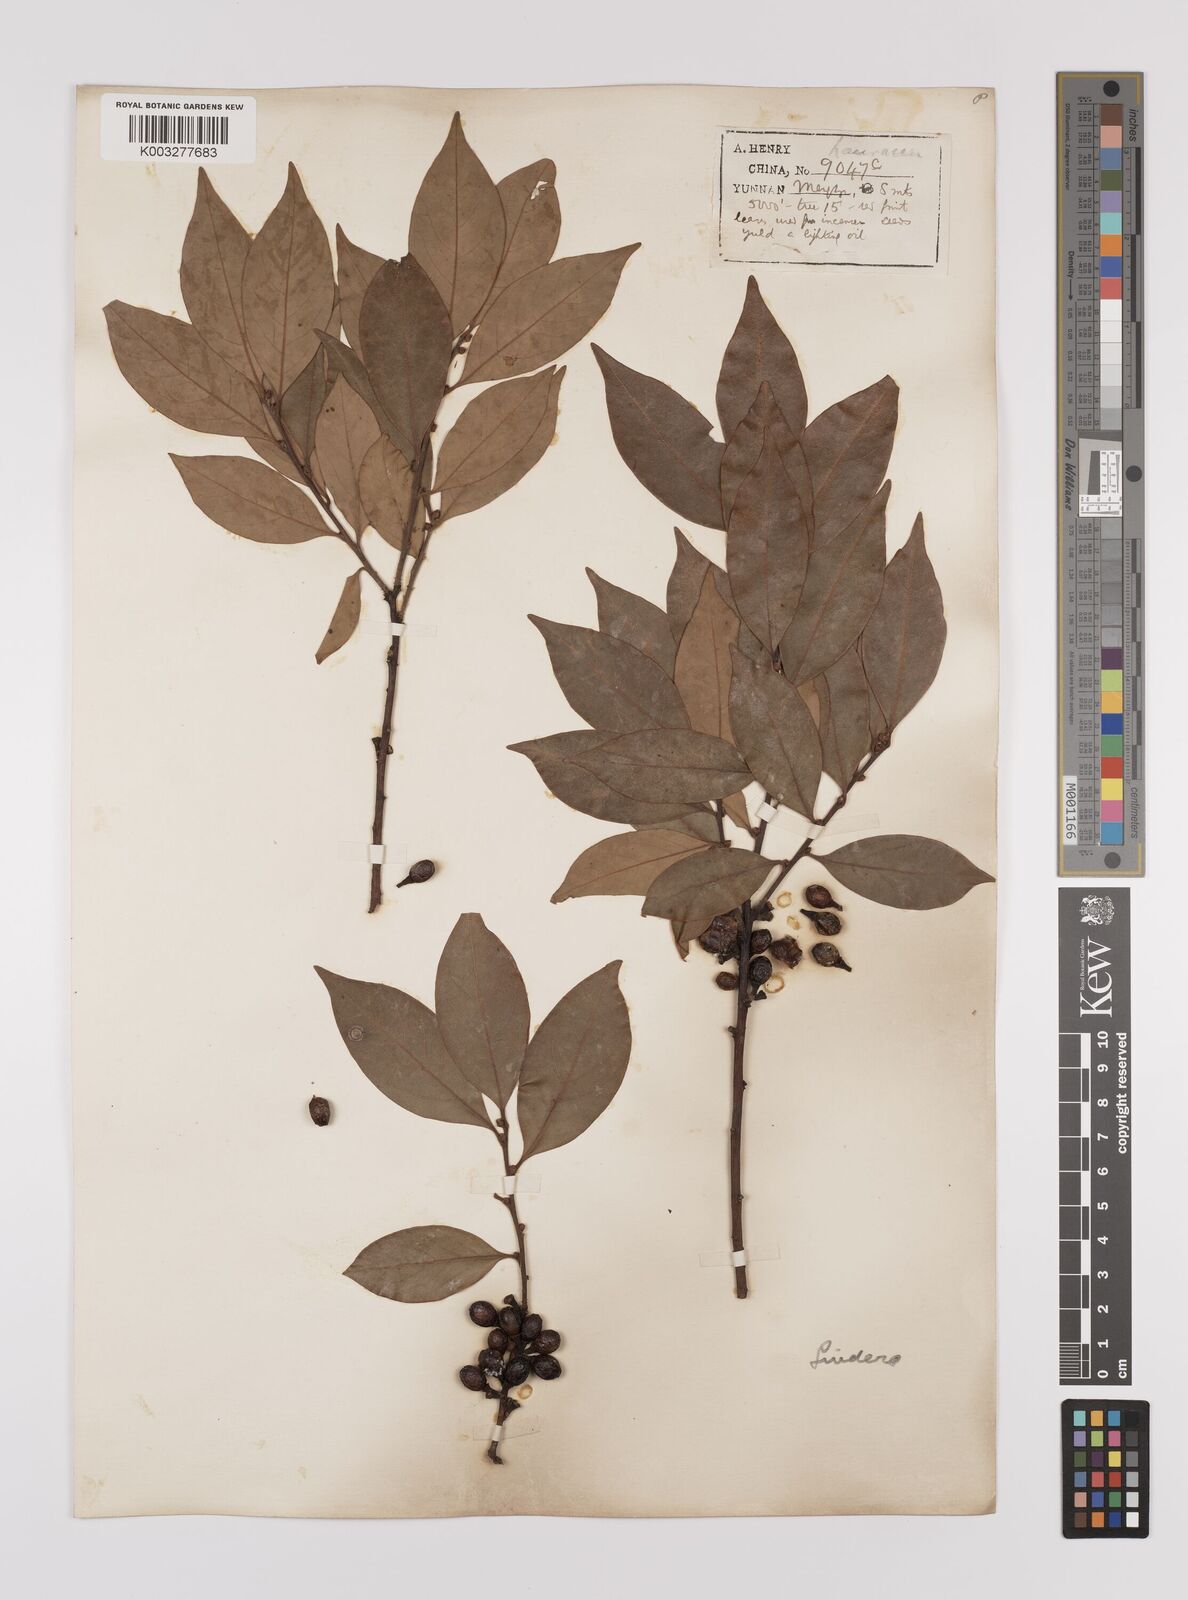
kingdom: Plantae
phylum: Tracheophyta
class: Magnoliopsida
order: Laurales
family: Lauraceae
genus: Litsea
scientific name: Litsea rotundifolia
